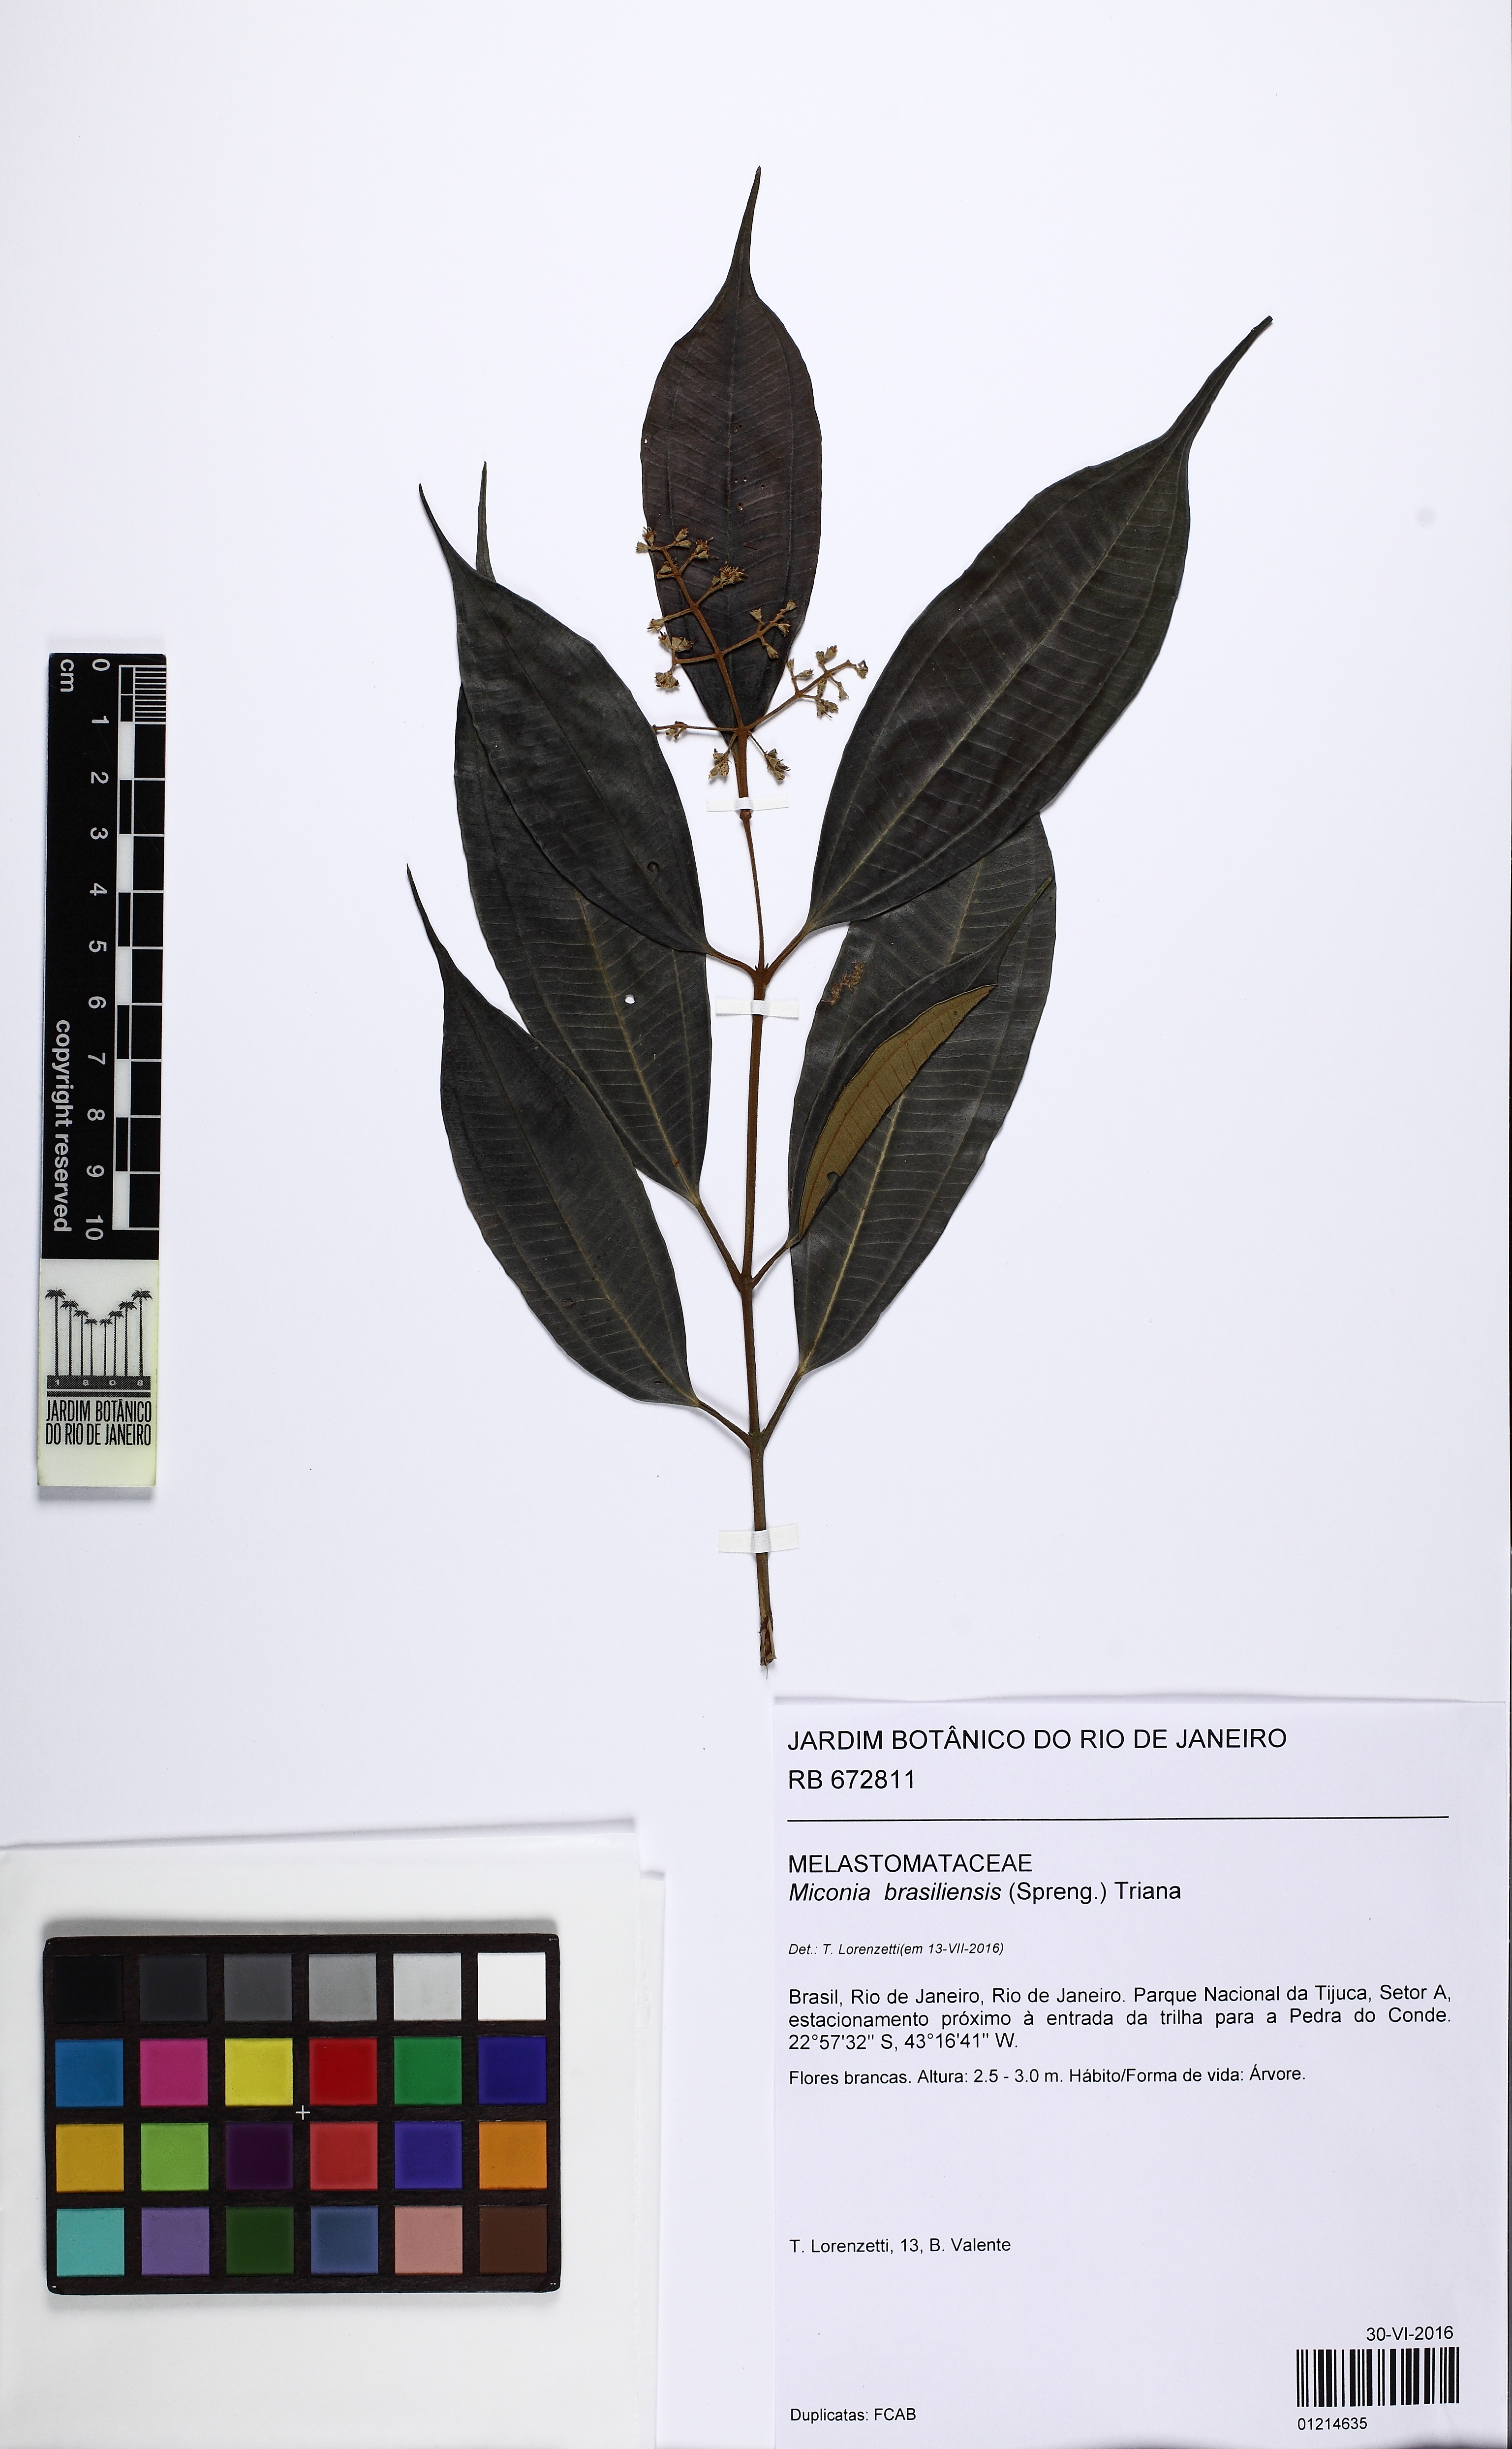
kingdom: Plantae
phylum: Tracheophyta
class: Magnoliopsida
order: Myrtales
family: Melastomataceae
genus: Miconia
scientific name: Miconia brasiliensis
